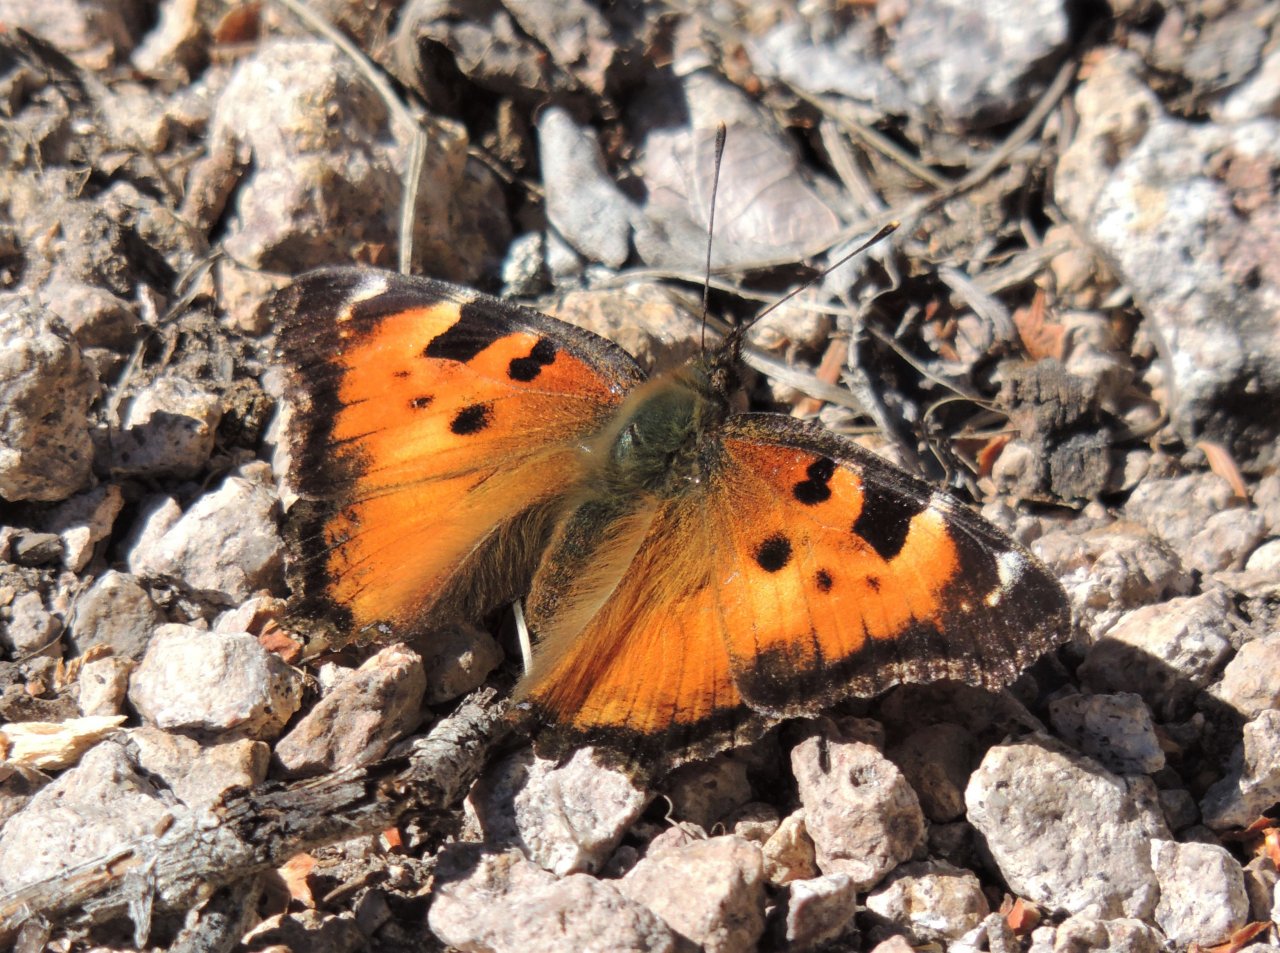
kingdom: Animalia
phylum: Arthropoda
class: Insecta
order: Lepidoptera
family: Nymphalidae
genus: Nymphalis
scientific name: Nymphalis californica
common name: California Tortoiseshell
